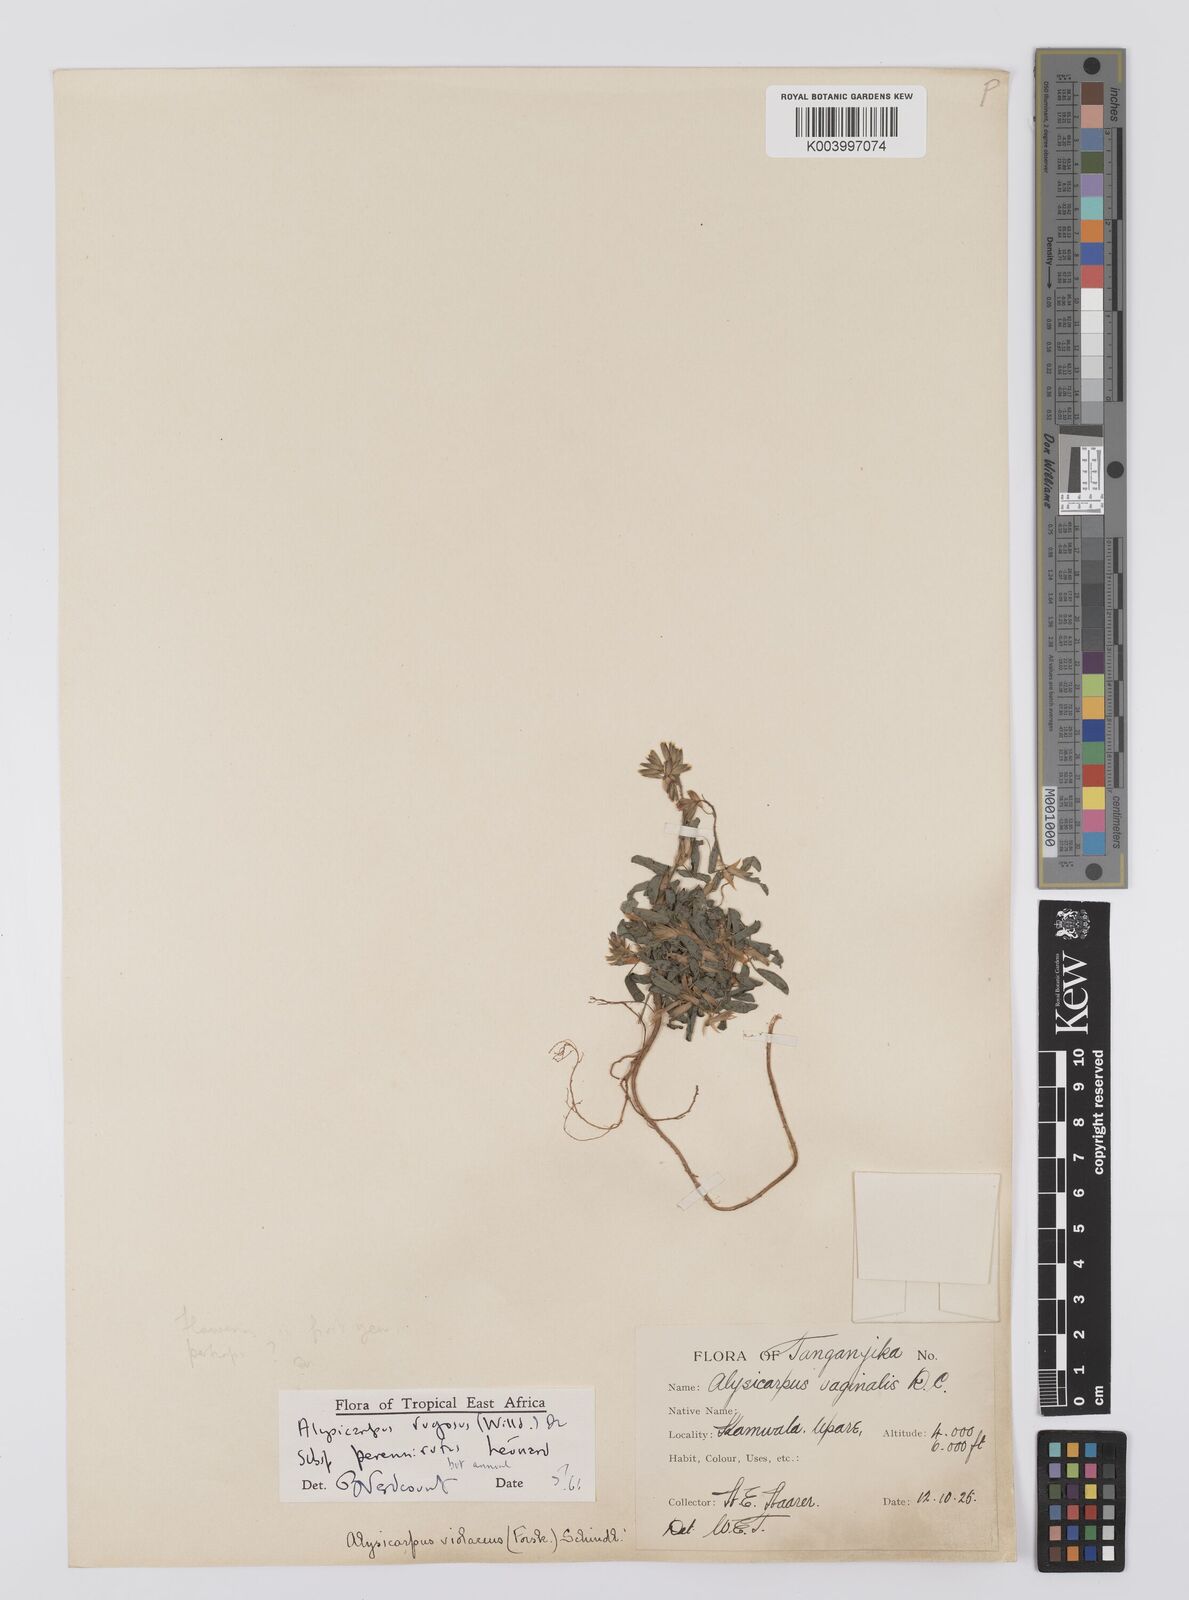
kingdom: Plantae
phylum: Tracheophyta
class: Magnoliopsida
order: Fabales
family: Fabaceae
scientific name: Fabaceae
